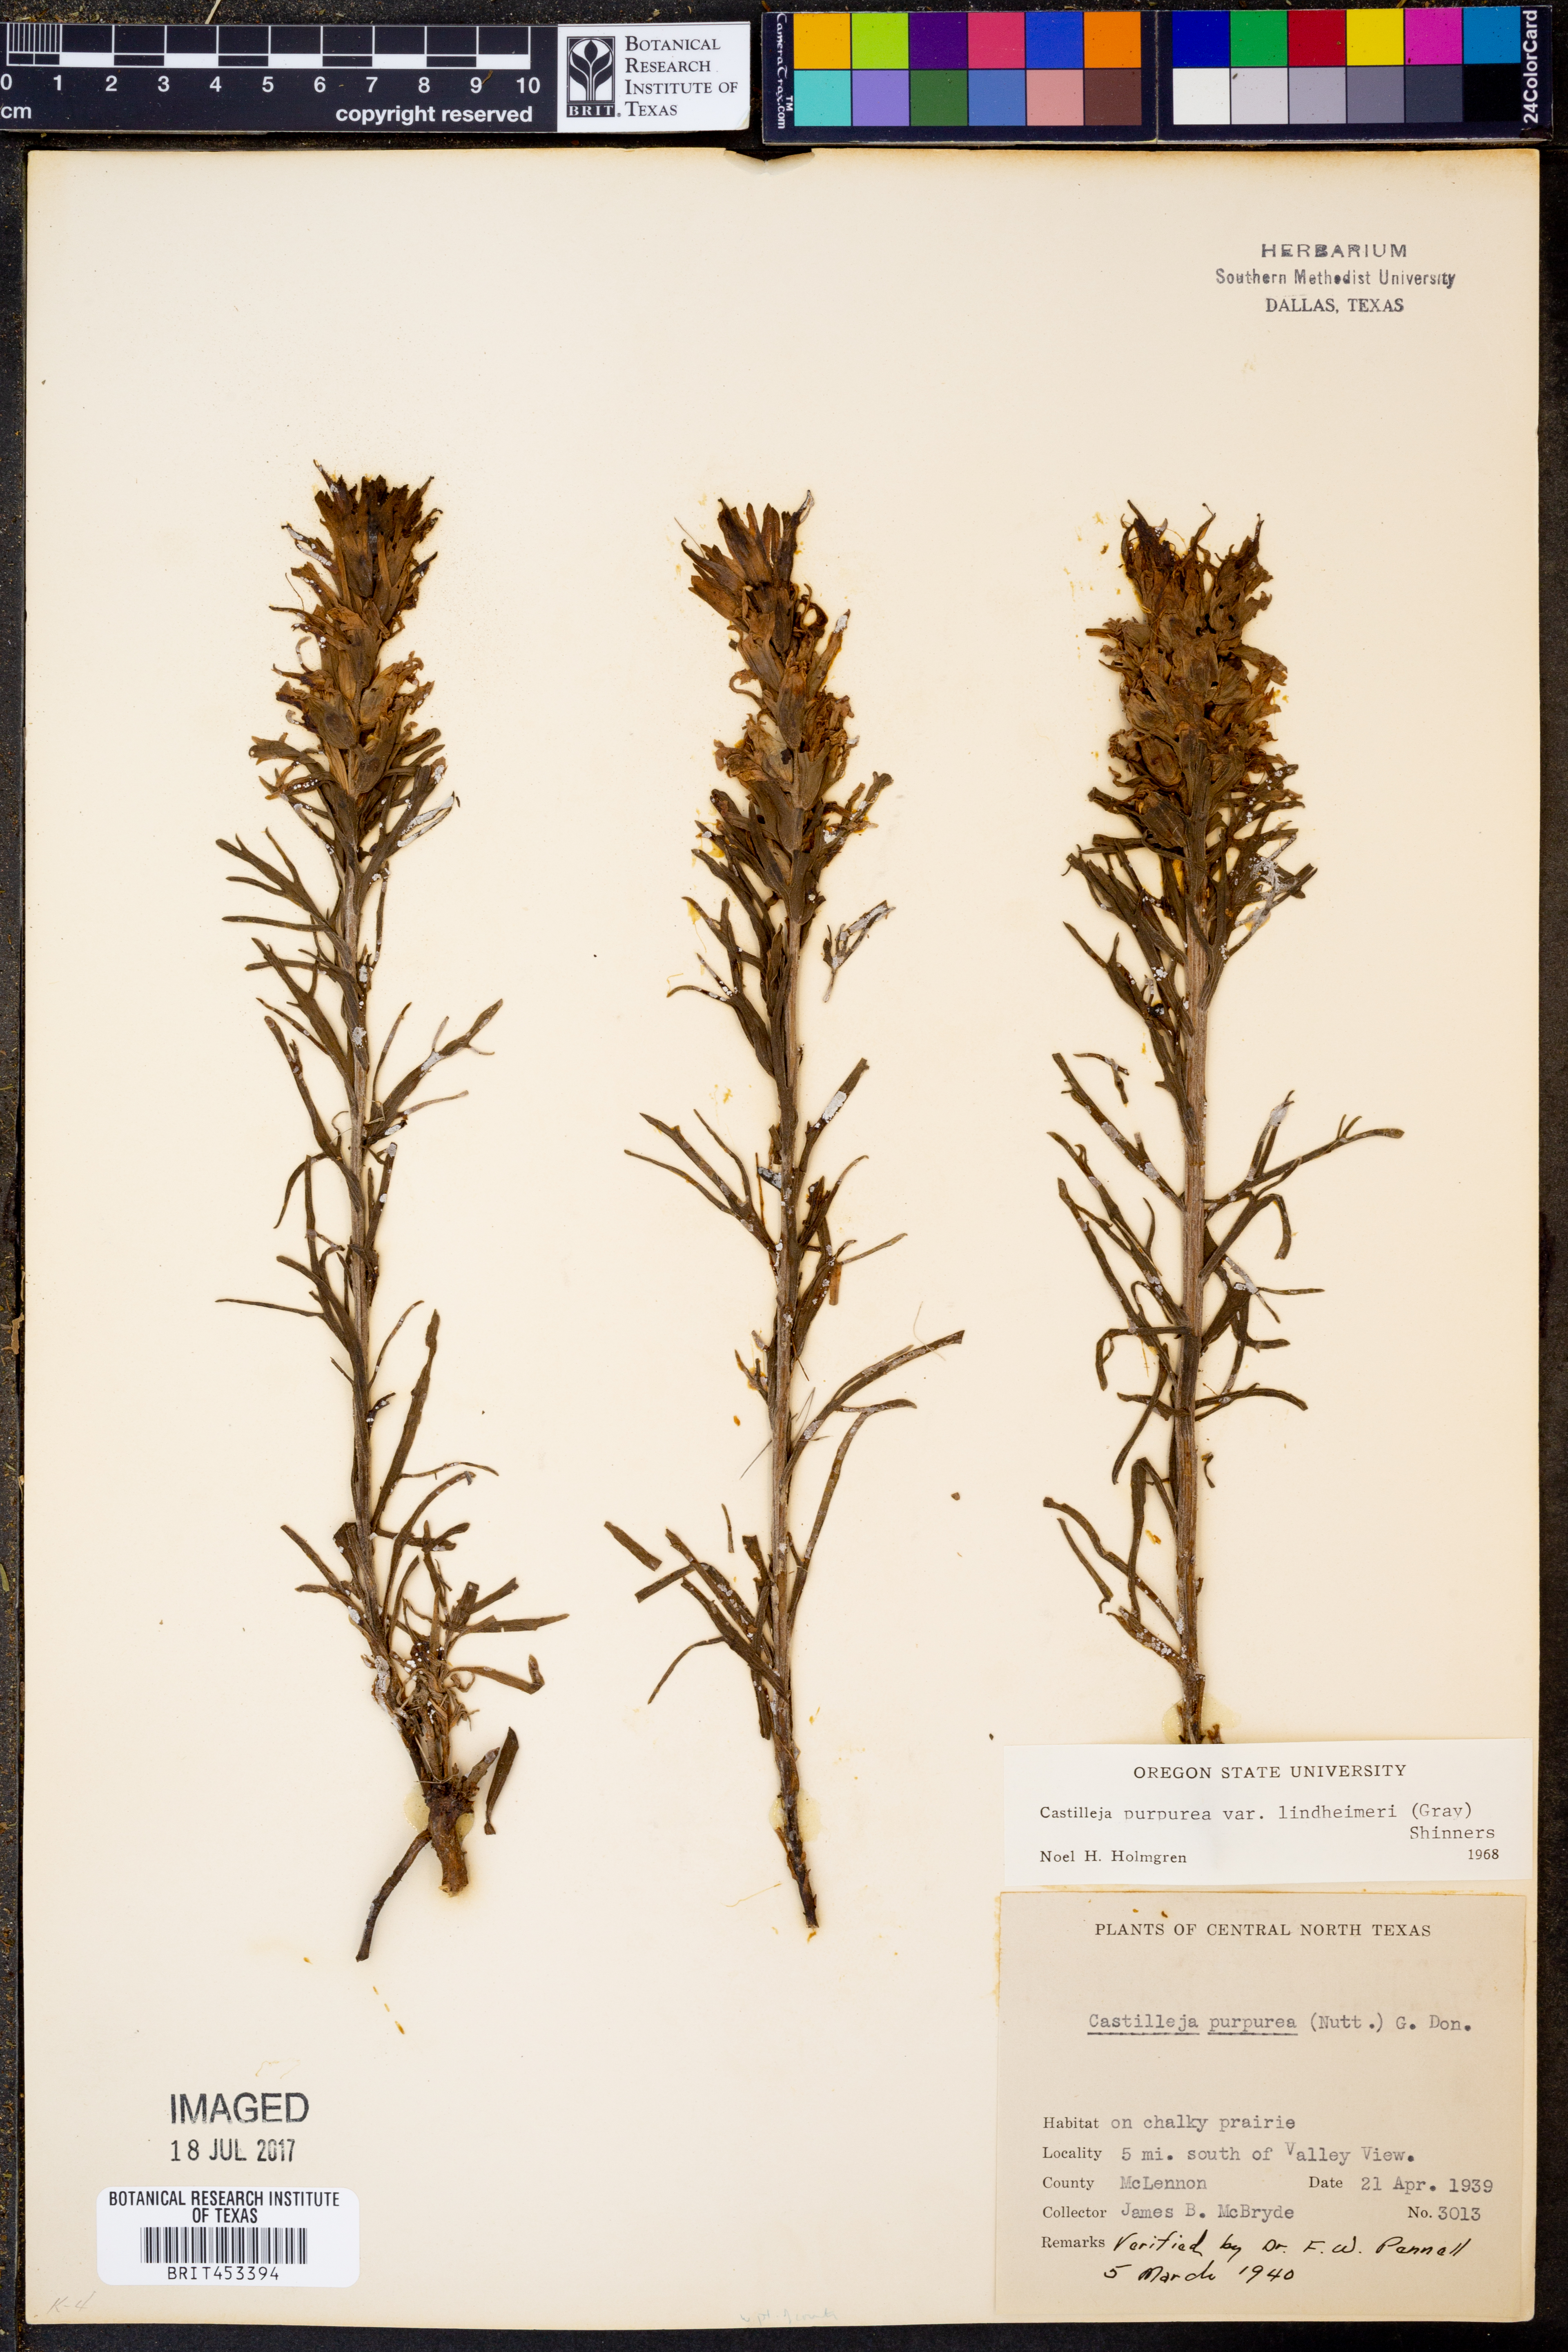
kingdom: Plantae
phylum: Tracheophyta
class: Magnoliopsida
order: Lamiales
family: Orobanchaceae
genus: Castilleja
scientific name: Castilleja lindheimeri
